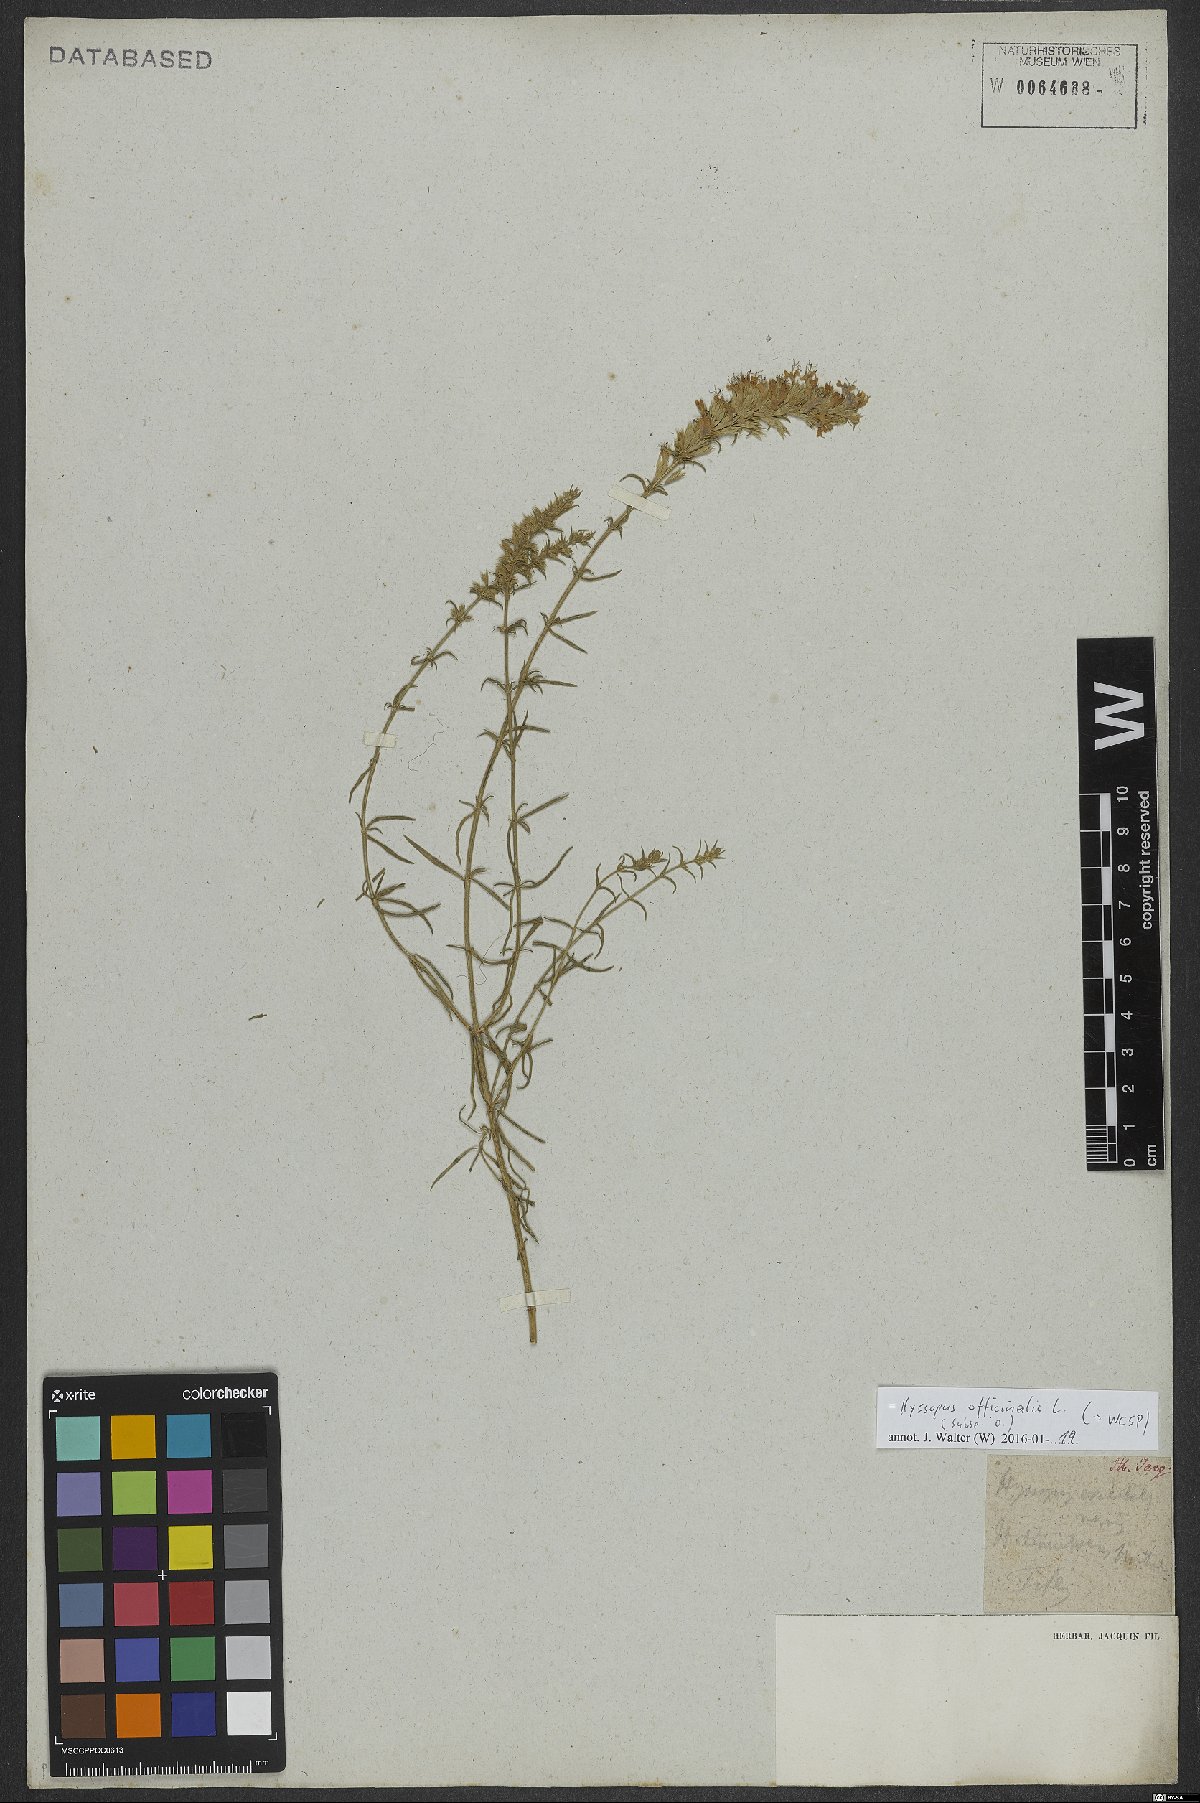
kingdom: Plantae
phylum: Tracheophyta
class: Magnoliopsida
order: Lamiales
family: Lamiaceae
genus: Hyssopus
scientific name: Hyssopus officinalis
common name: Hyssop
